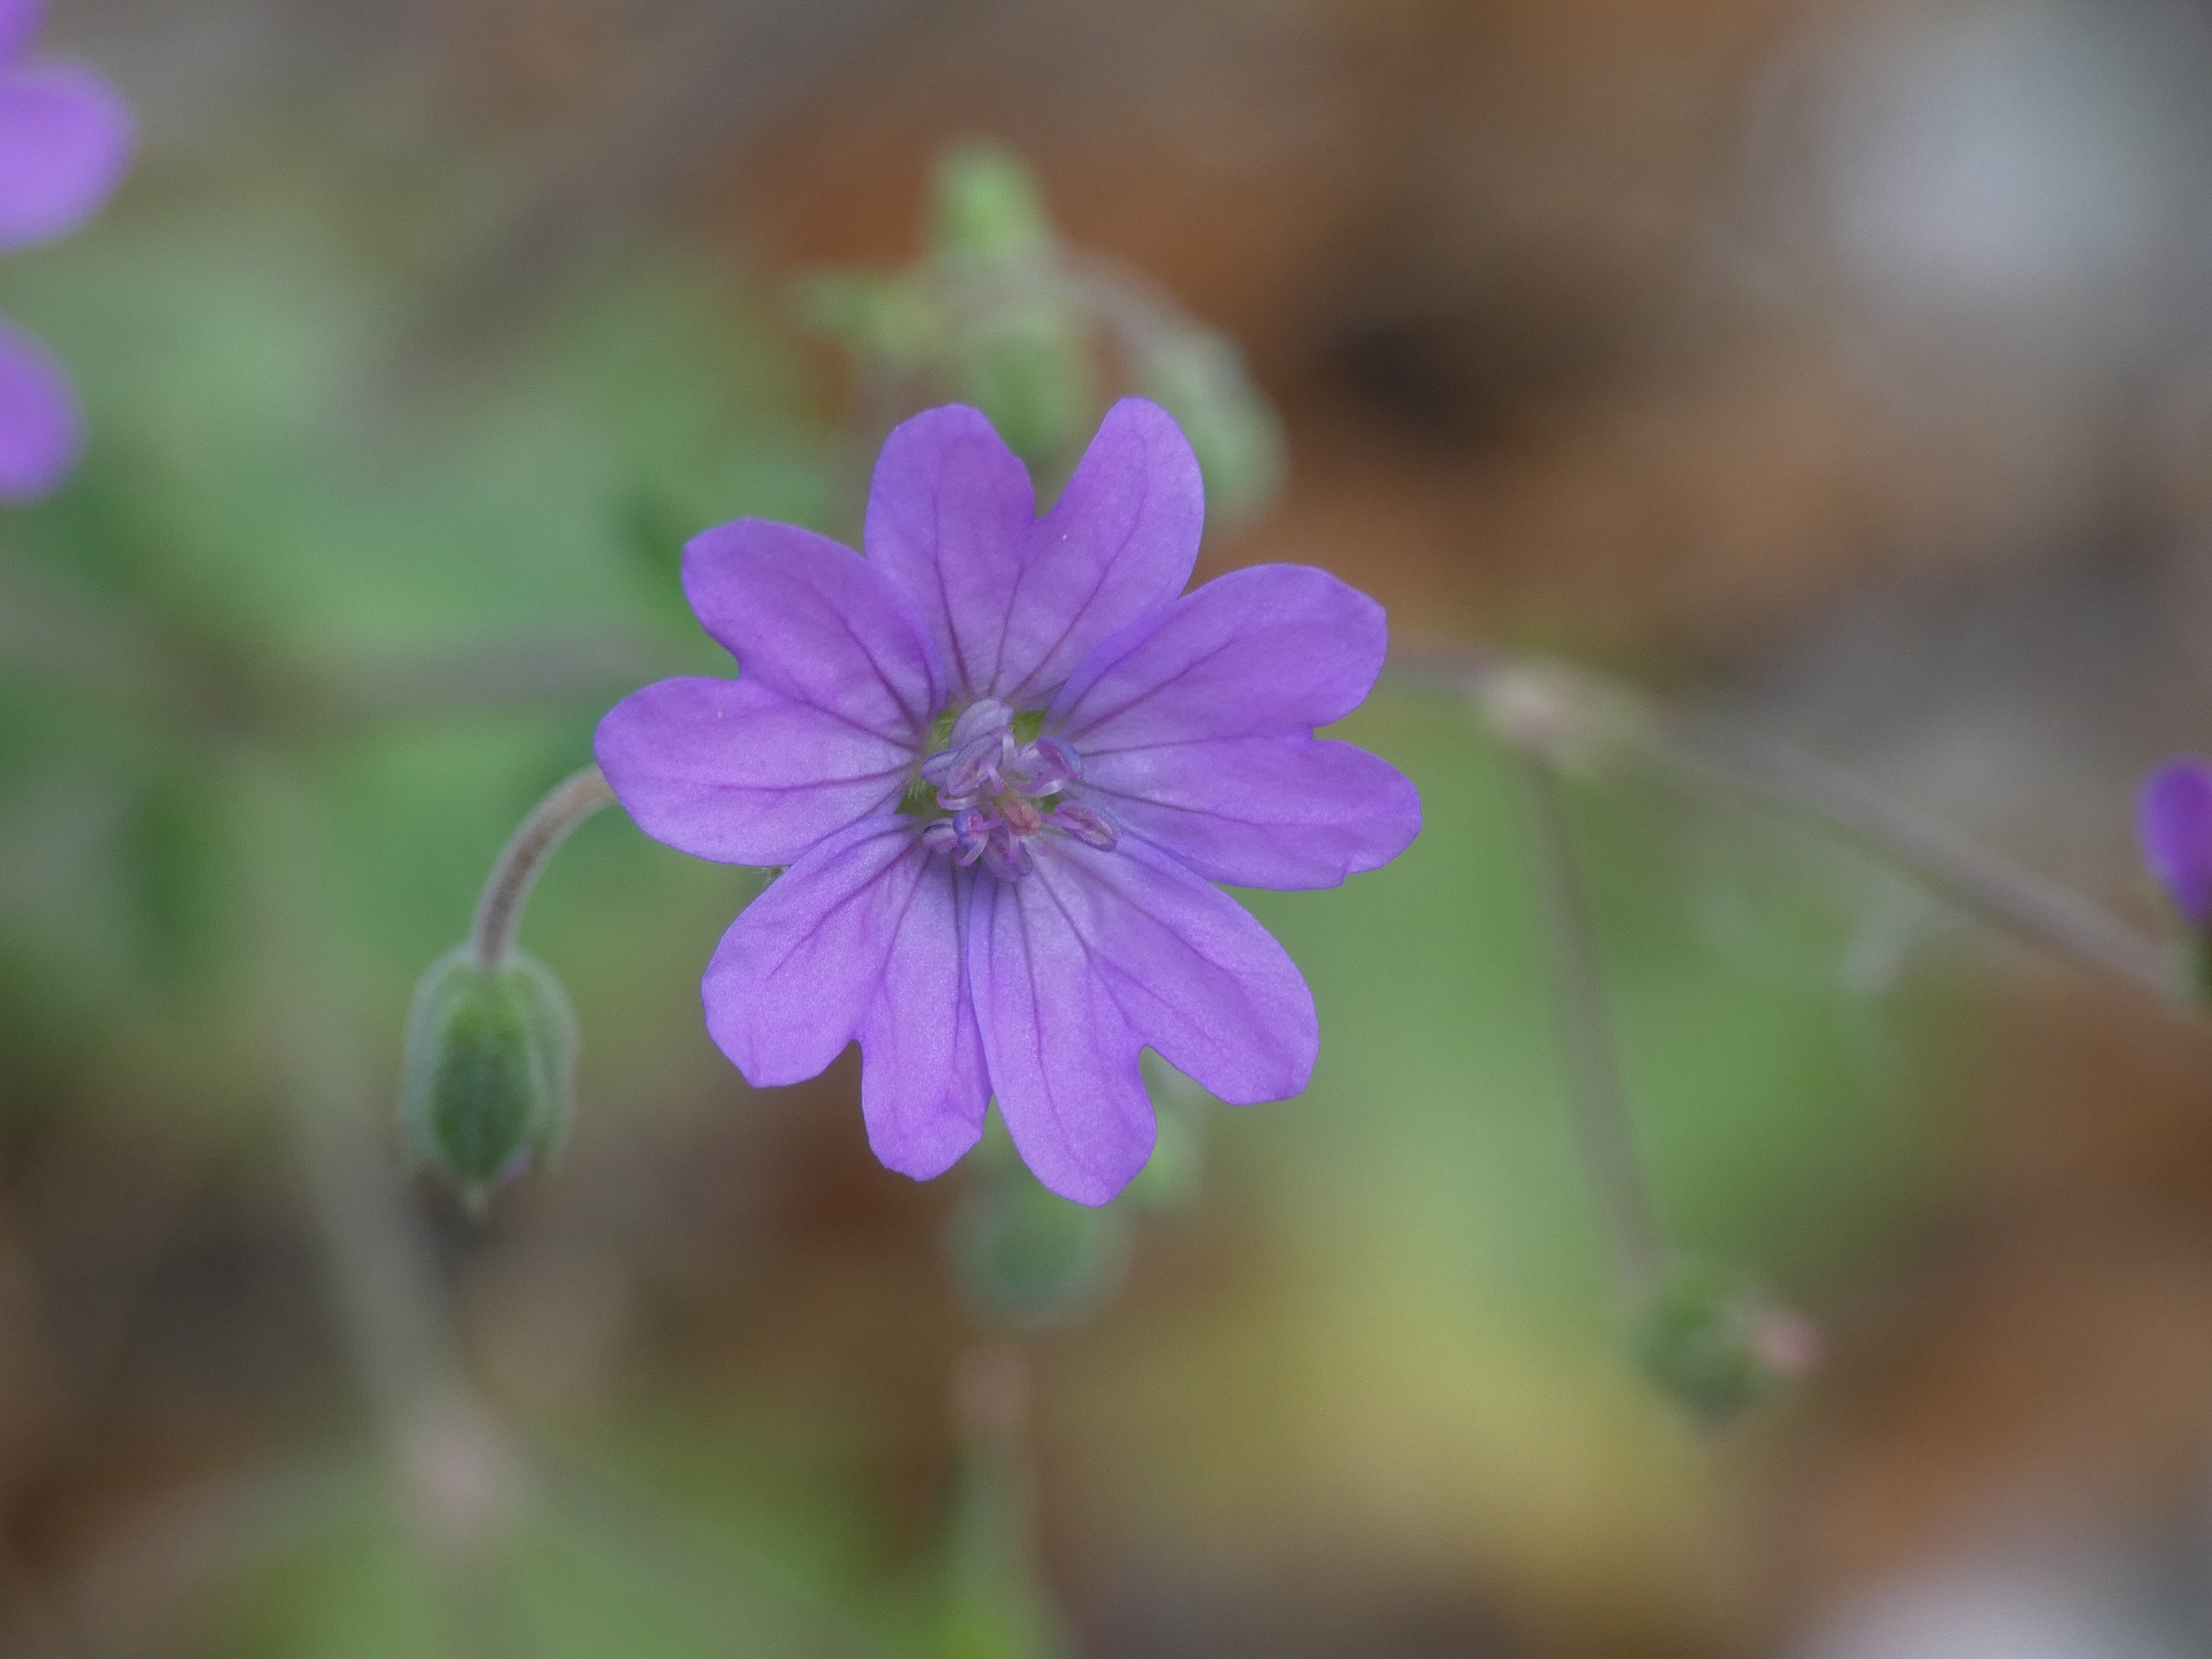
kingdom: Plantae
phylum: Tracheophyta
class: Magnoliopsida
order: Geraniales
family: Geraniaceae
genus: Geranium
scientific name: Geranium pyrenaicum
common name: Pyrenæisk storkenæb
